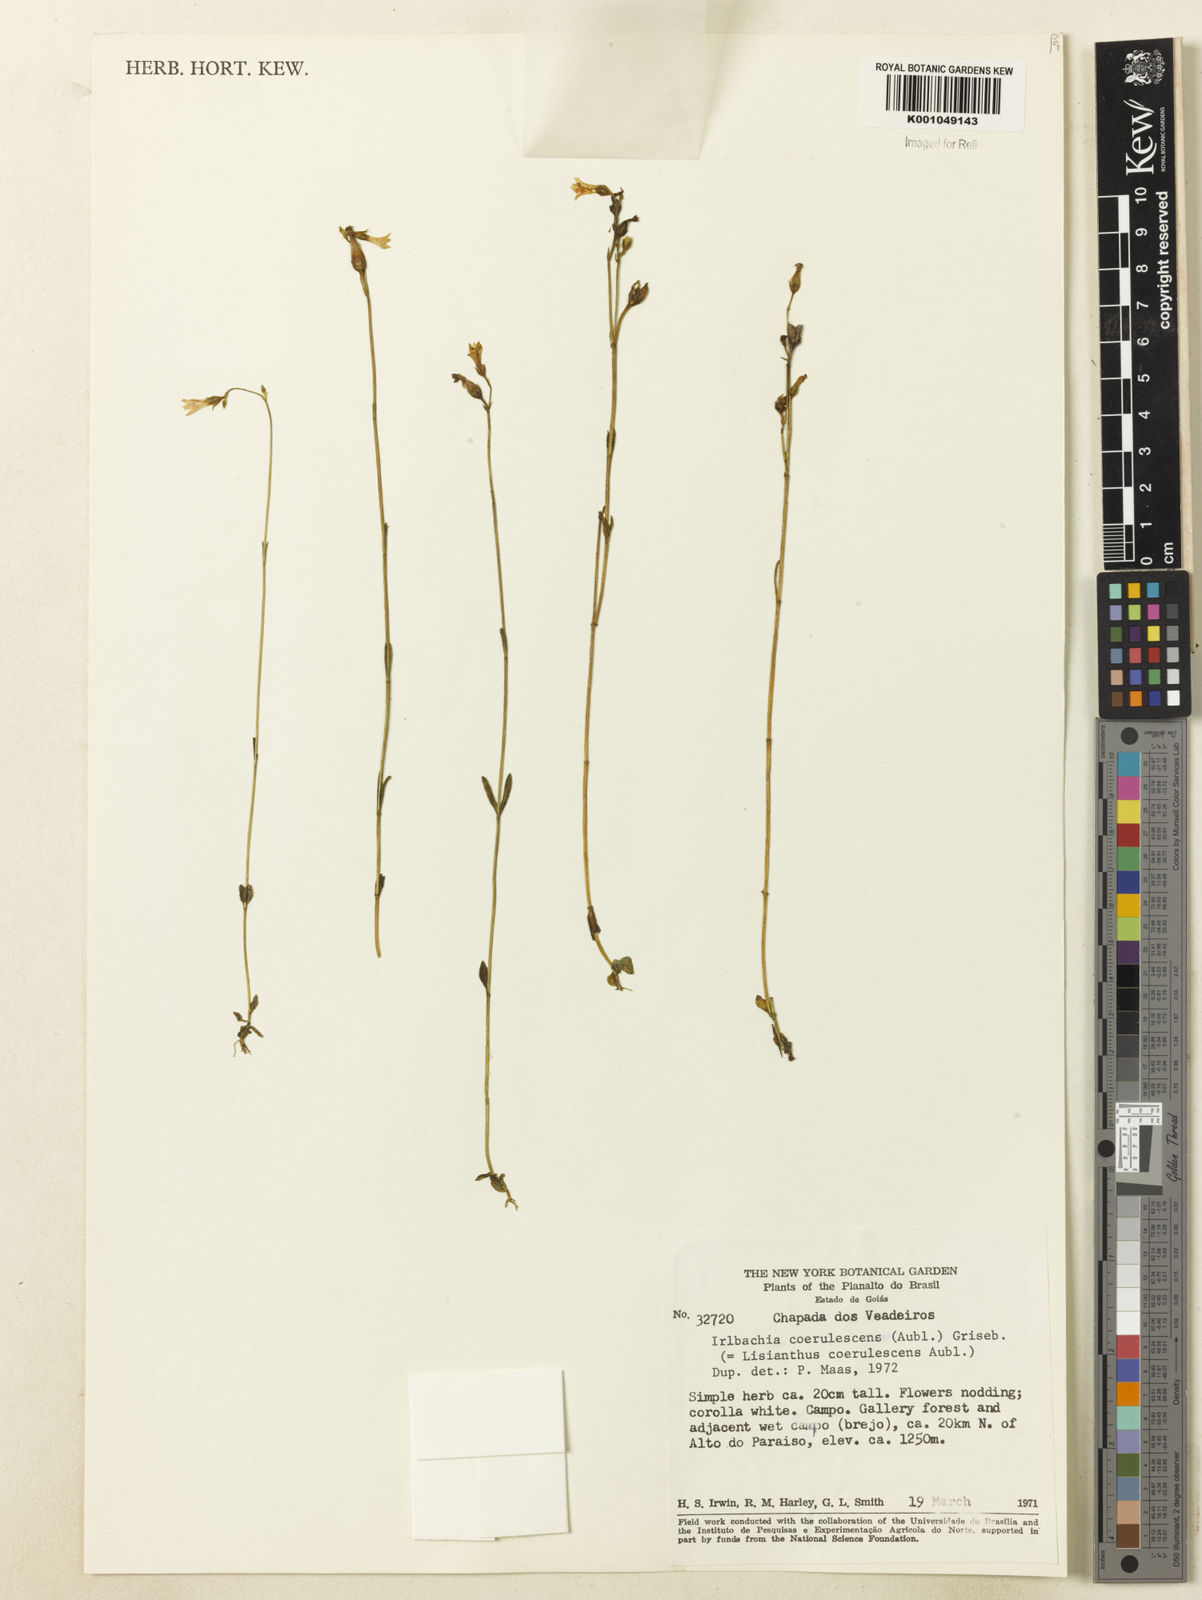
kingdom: Plantae
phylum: Tracheophyta
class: Magnoliopsida
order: Gentianales
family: Gentianaceae
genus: Tetrapollinia
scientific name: Tetrapollinia caerulescens
